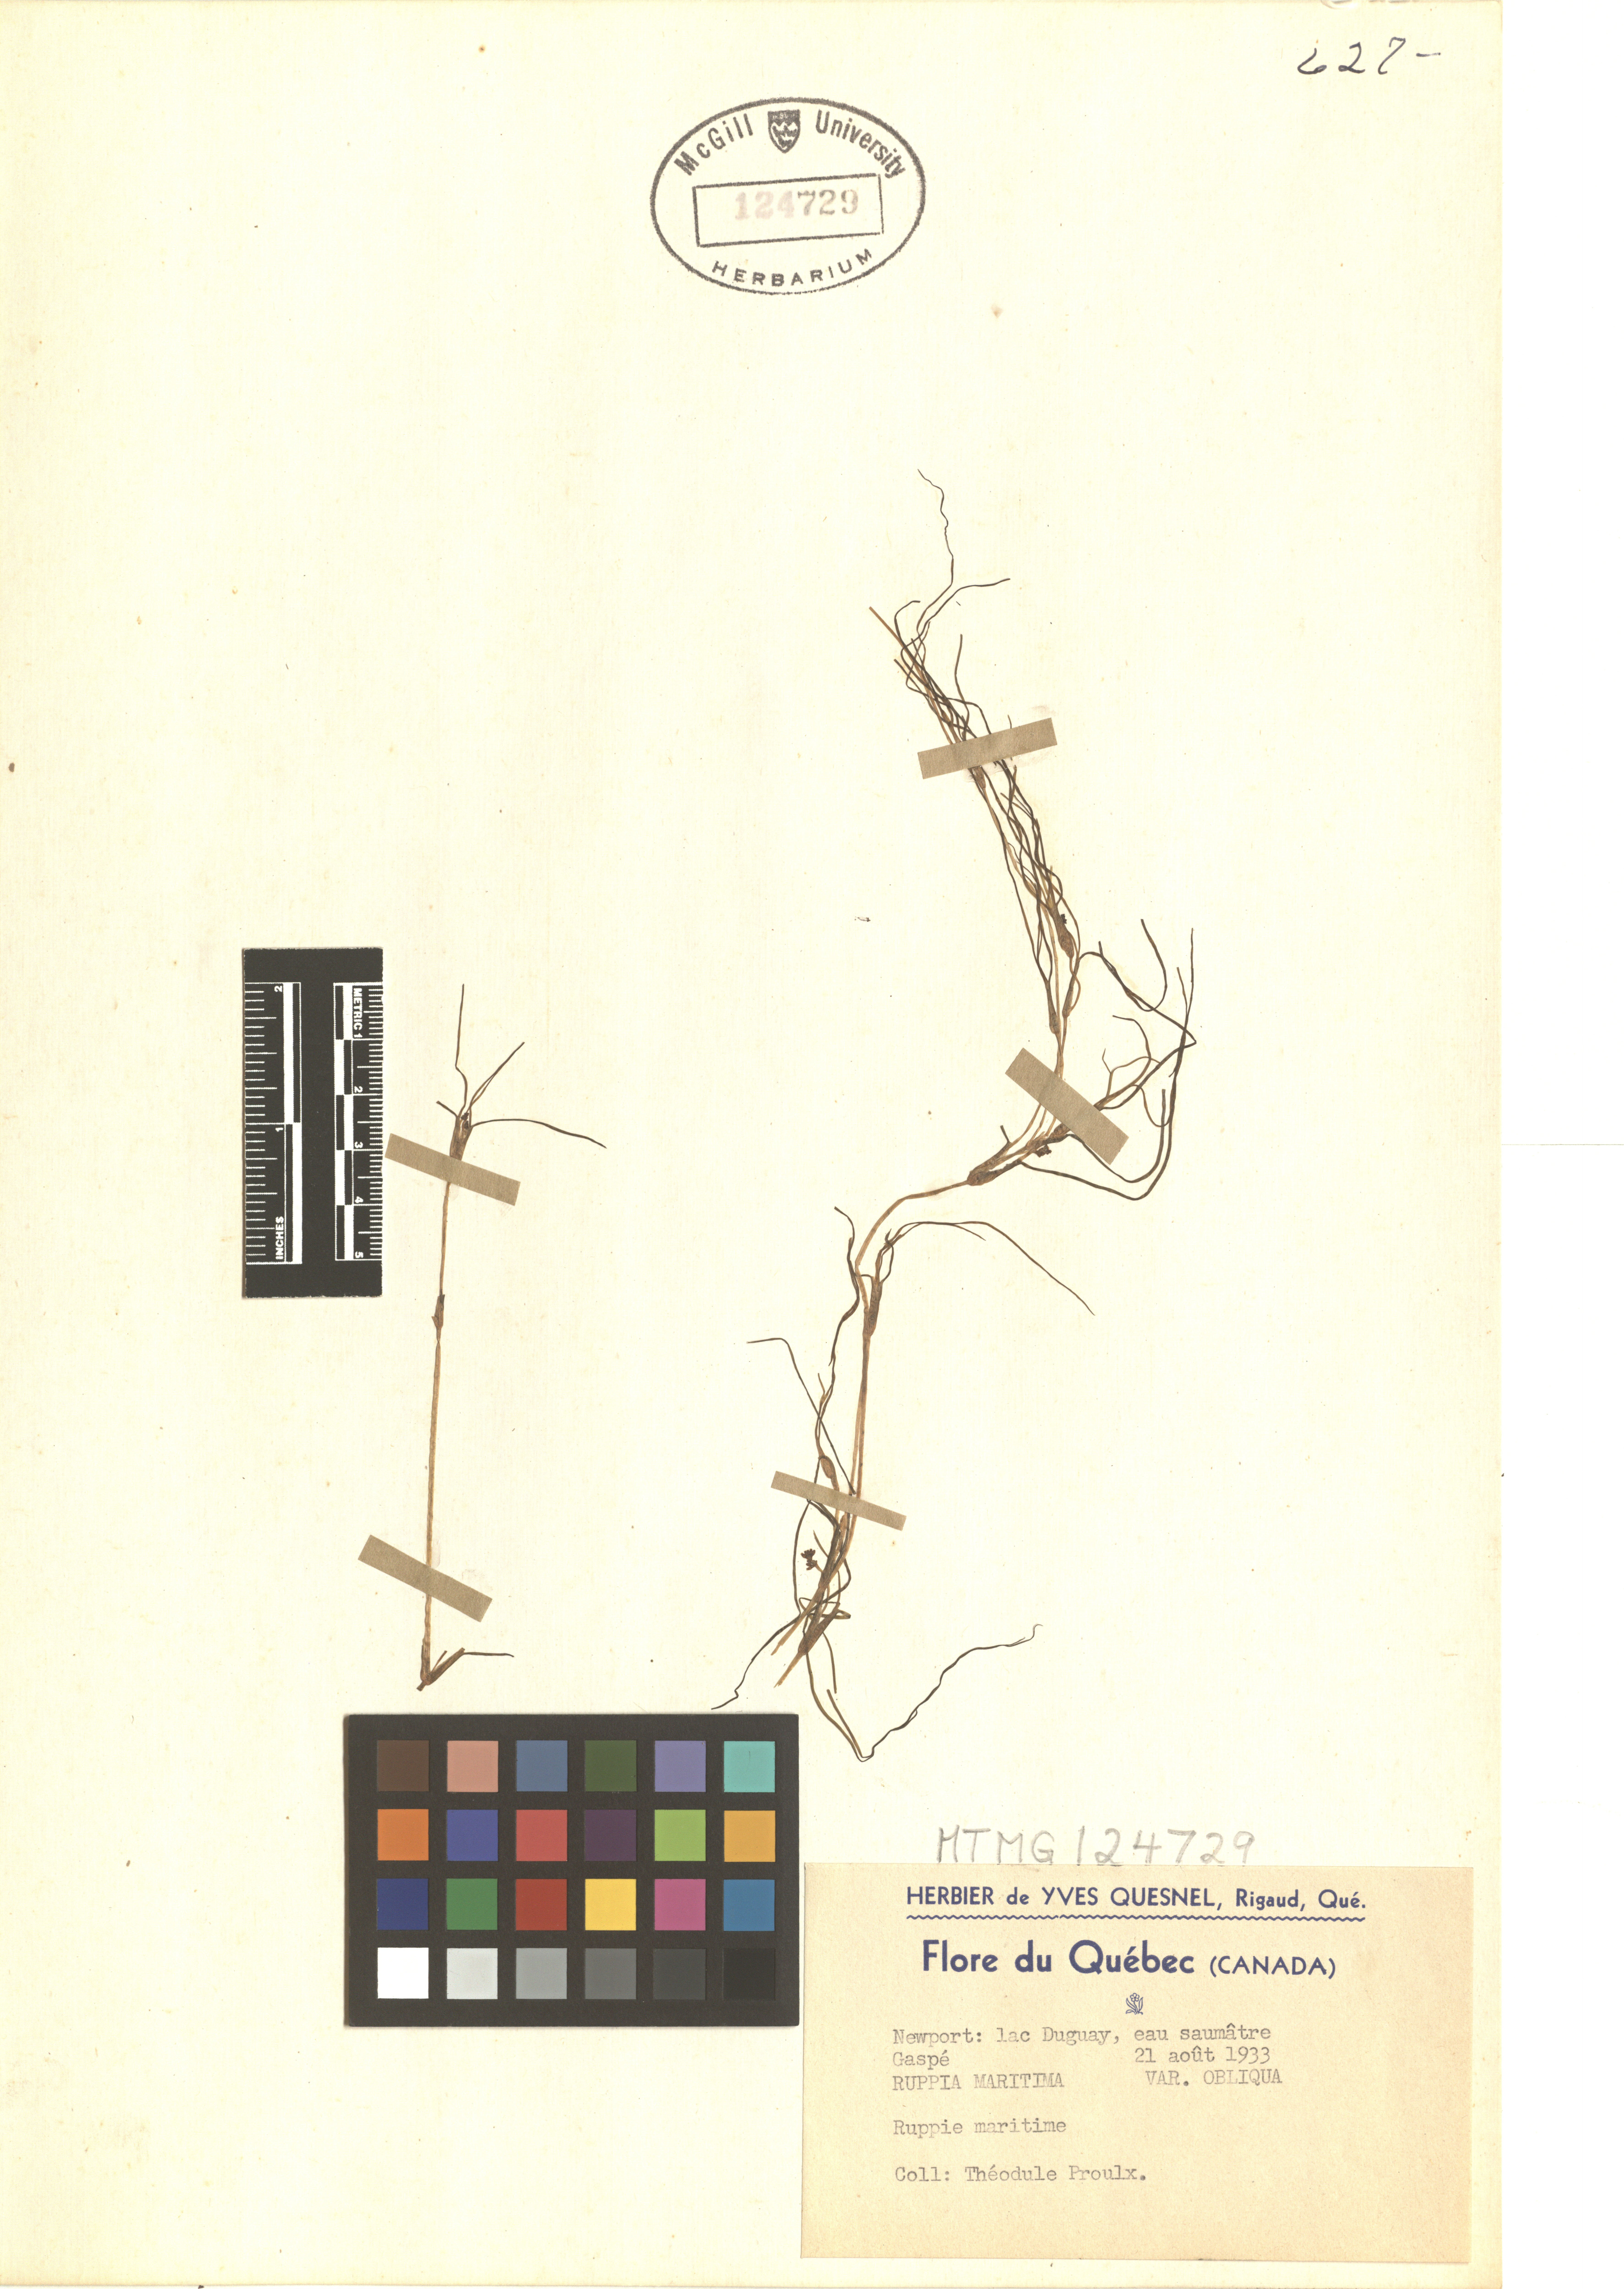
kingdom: Plantae
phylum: Tracheophyta
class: Liliopsida
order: Alismatales
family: Ruppiaceae
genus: Ruppia
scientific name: Ruppia maritima
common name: Beaked tasselweed
